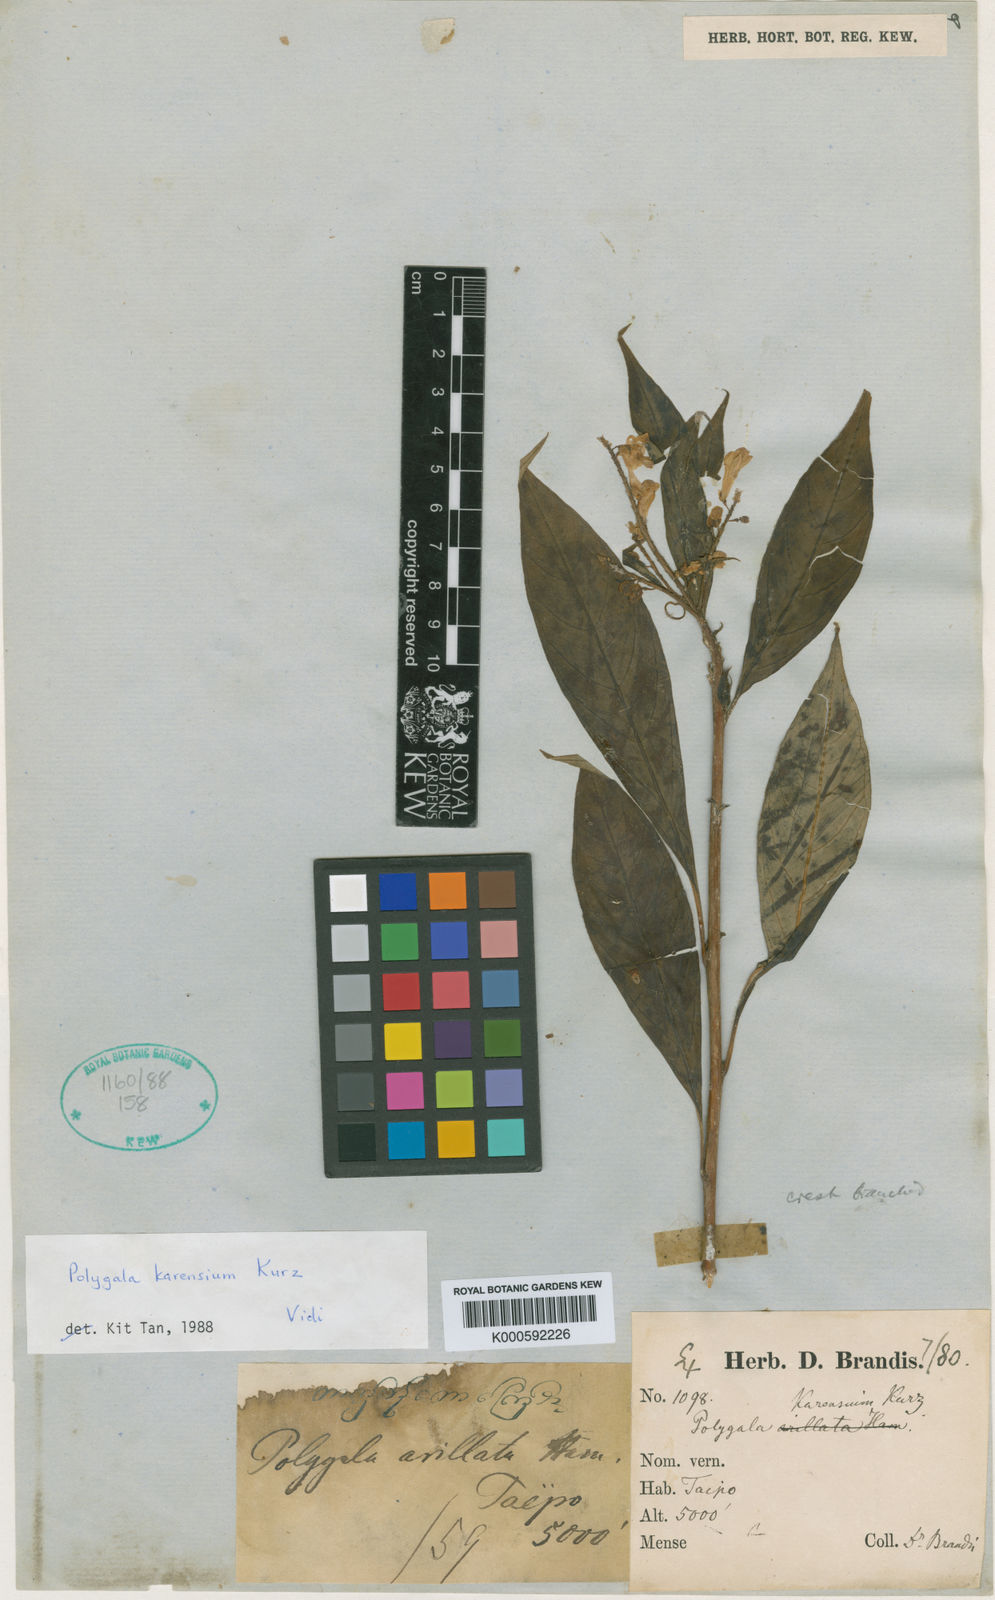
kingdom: Plantae
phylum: Tracheophyta
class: Magnoliopsida
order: Fabales
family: Polygalaceae
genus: Polygala
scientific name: Polygala karensium
